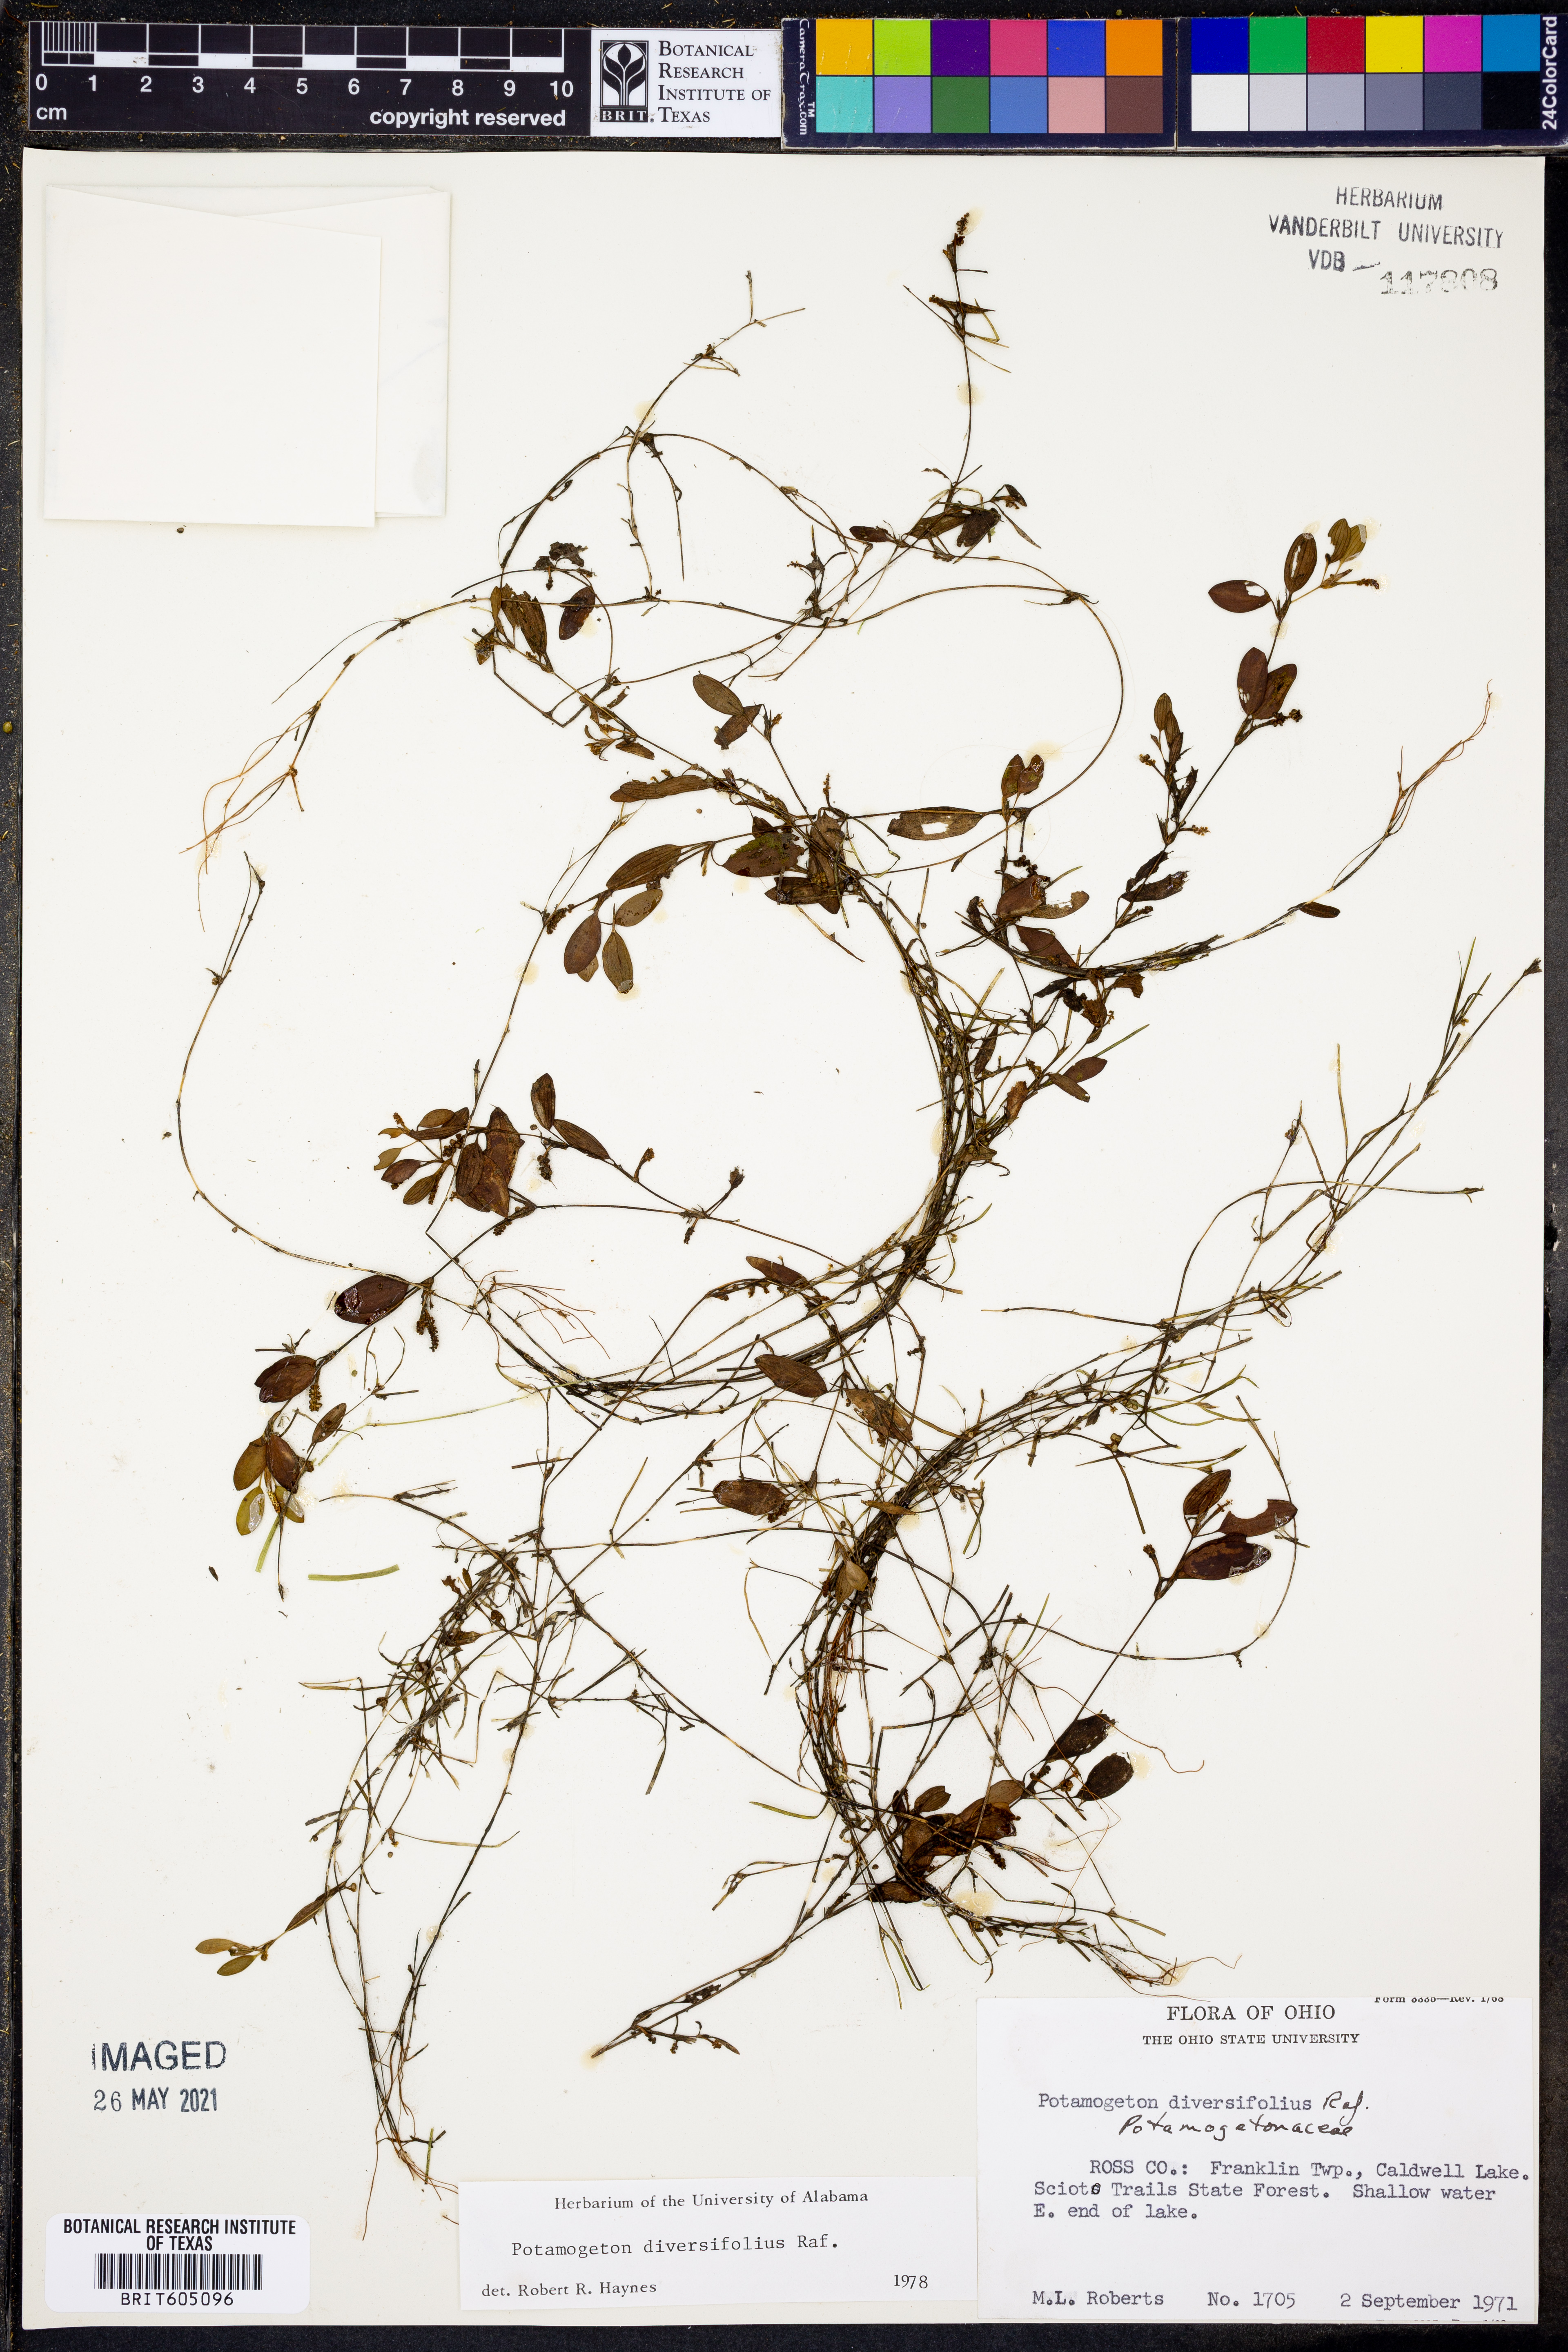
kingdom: Plantae
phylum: Tracheophyta
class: Liliopsida
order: Alismatales
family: Potamogetonaceae
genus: Potamogeton
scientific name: Potamogeton diversifolius
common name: Water-thread pondweed
